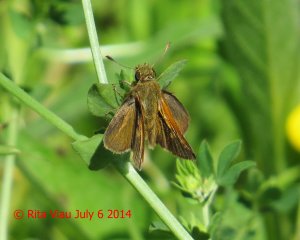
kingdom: Animalia
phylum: Arthropoda
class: Insecta
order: Lepidoptera
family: Hesperiidae
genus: Polites
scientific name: Polites themistocles
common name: Tawny-edged Skipper
